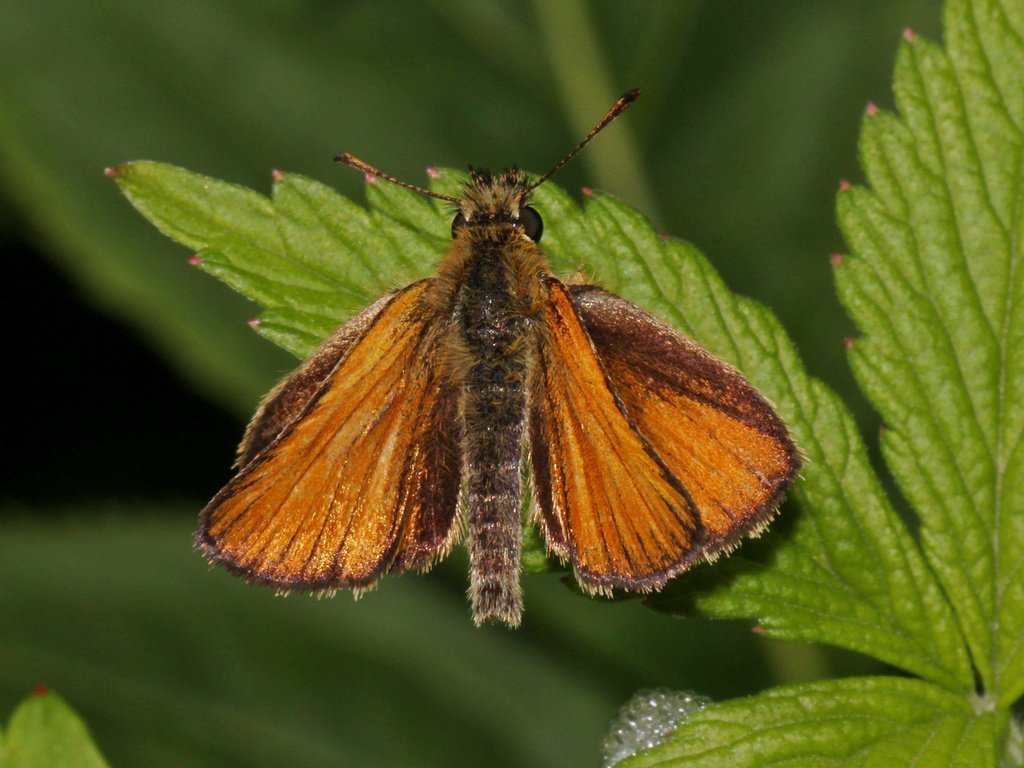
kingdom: Animalia
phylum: Arthropoda
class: Insecta
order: Lepidoptera
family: Hesperiidae
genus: Thymelicus
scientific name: Thymelicus lineola
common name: European Skipper
